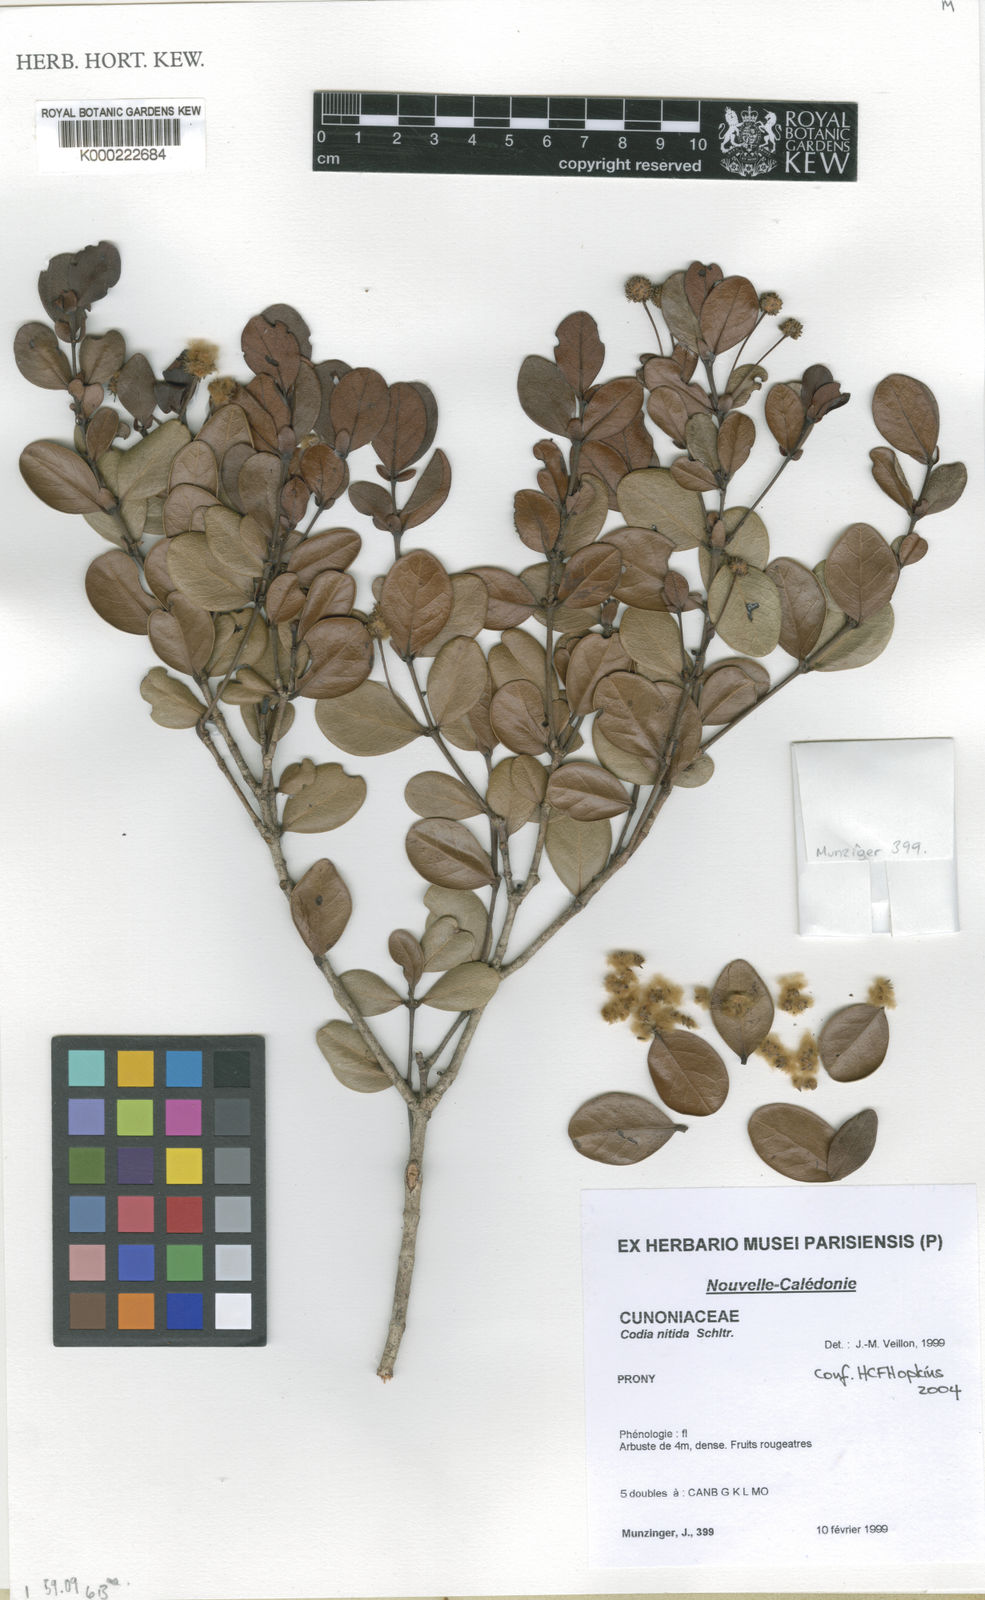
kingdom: Plantae
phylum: Tracheophyta
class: Magnoliopsida
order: Oxalidales
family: Cunoniaceae
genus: Codia
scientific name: Codia nitida
